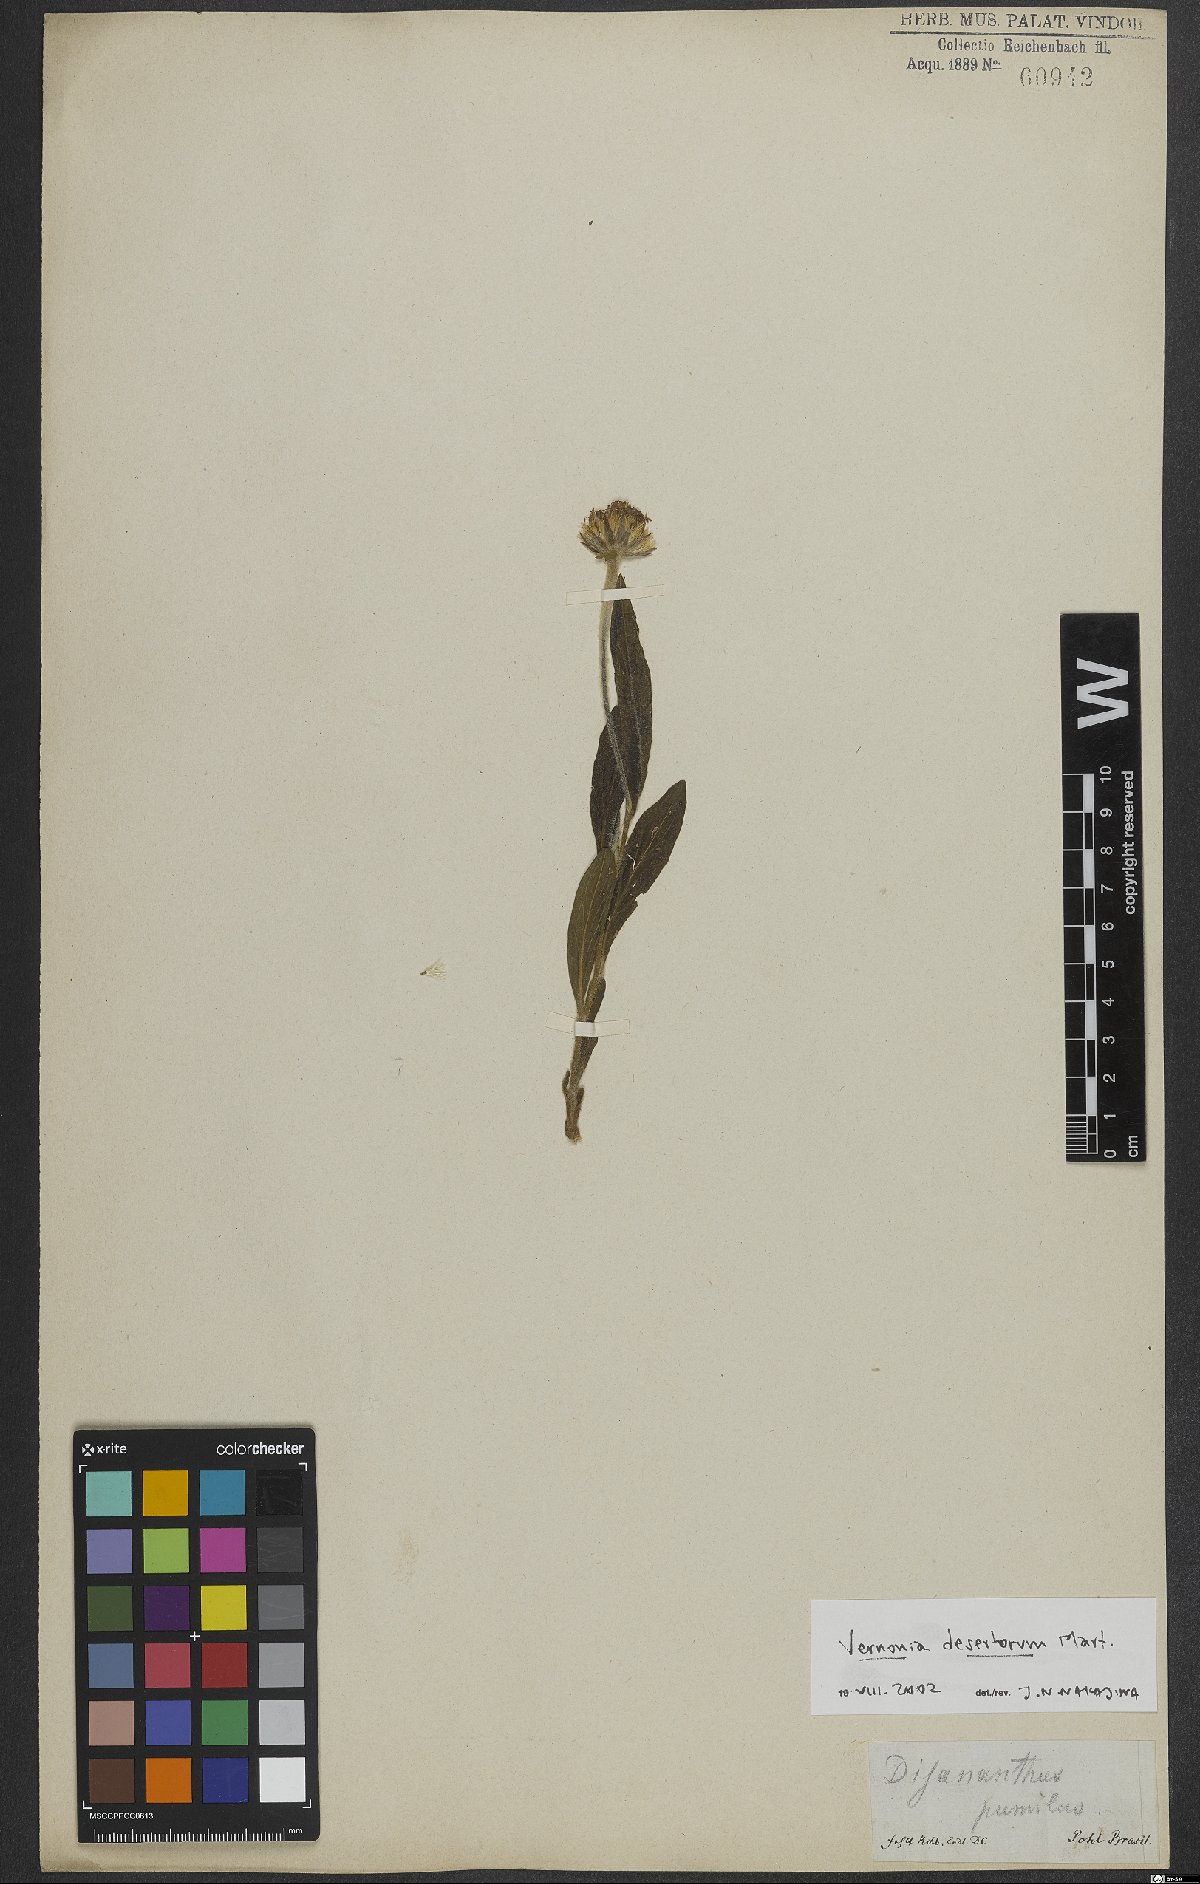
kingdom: Plantae
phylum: Tracheophyta
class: Magnoliopsida
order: Asterales
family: Asteraceae
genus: Chrysolaena
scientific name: Chrysolaena desertorum
